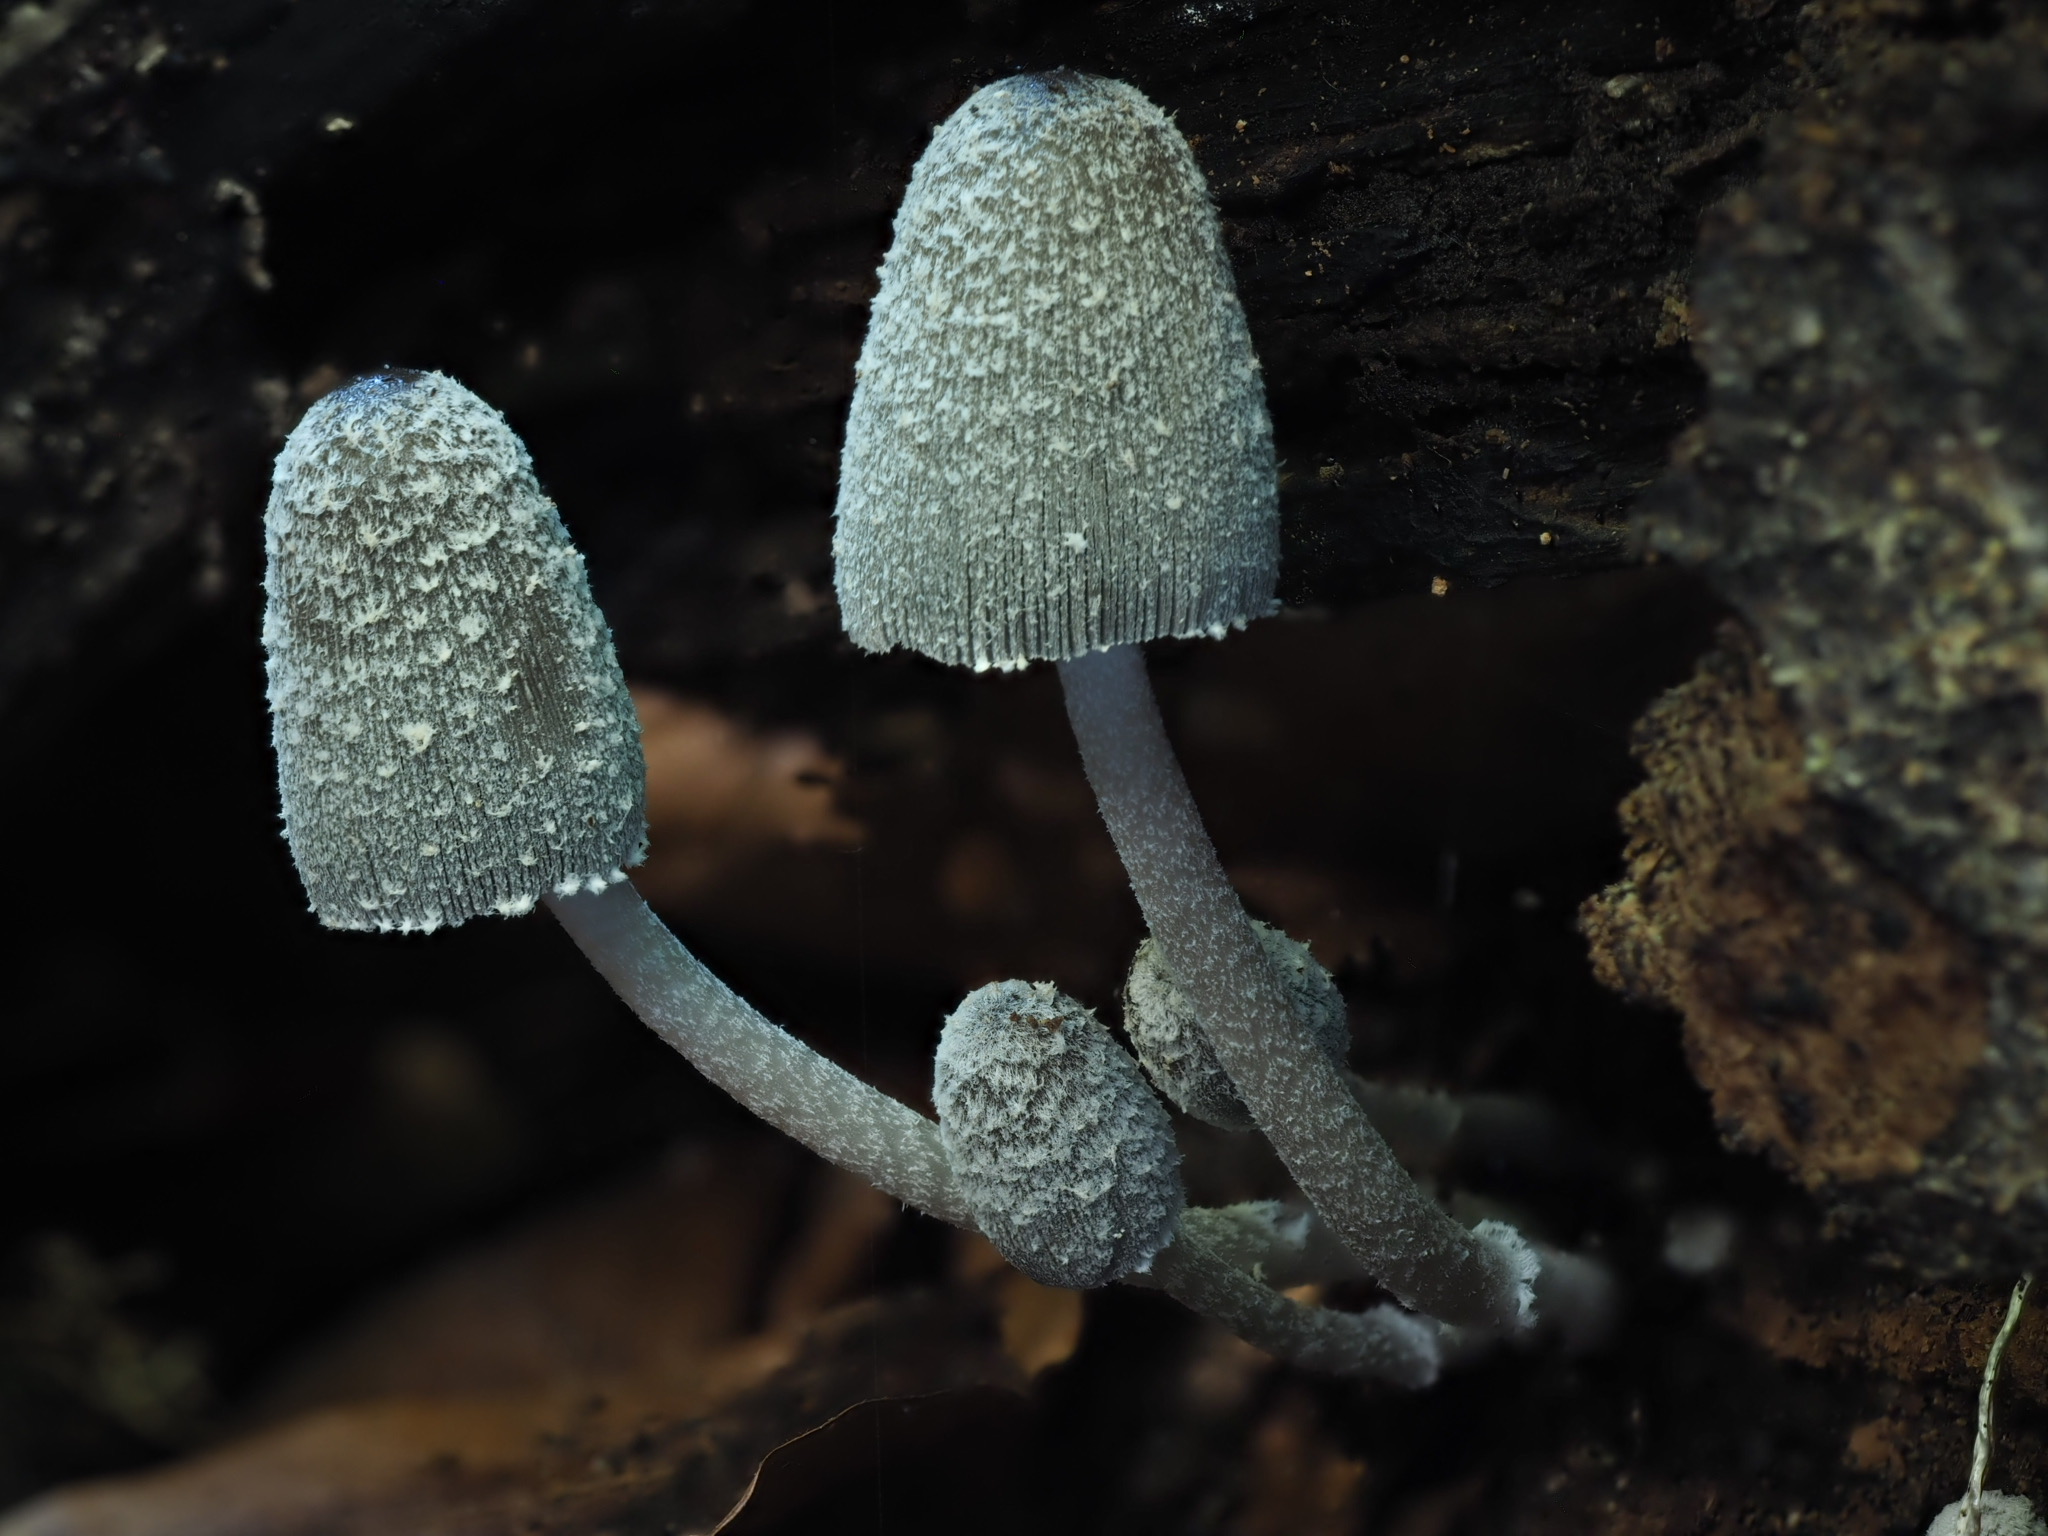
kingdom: Fungi
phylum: Basidiomycota
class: Agaricomycetes
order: Agaricales
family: Psathyrellaceae
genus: Coprinopsis
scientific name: Coprinopsis echinospora
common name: fuglemøg-blækhat
